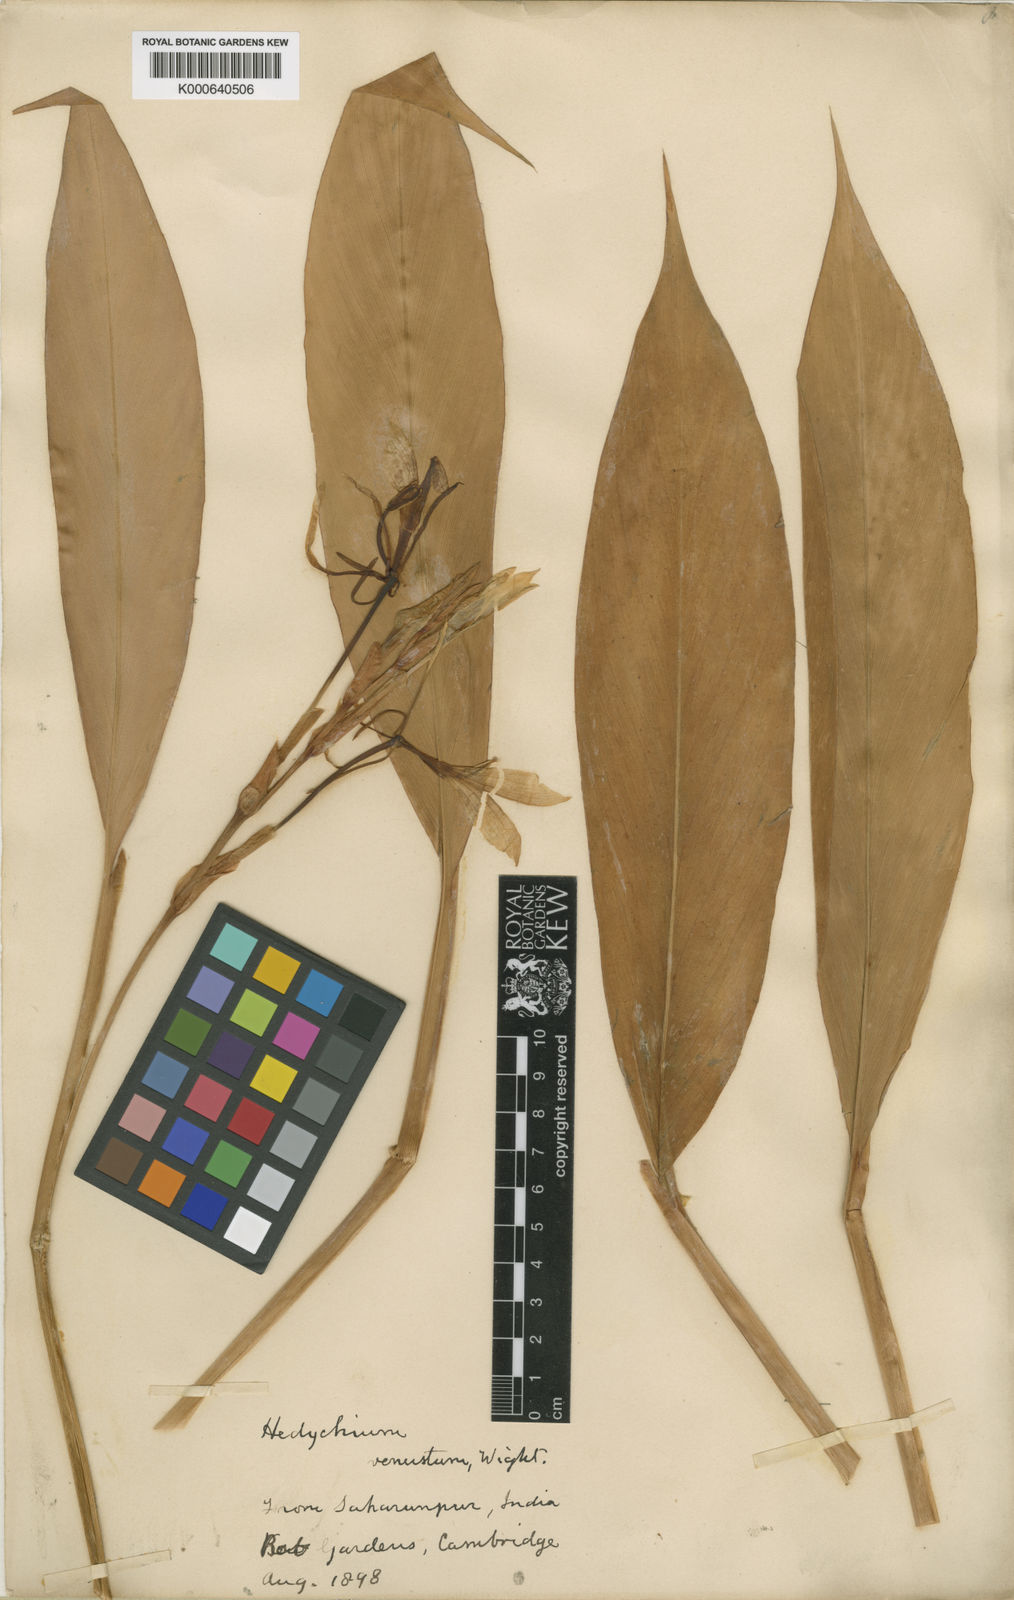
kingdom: Plantae
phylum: Tracheophyta
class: Liliopsida
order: Zingiberales
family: Zingiberaceae
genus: Hedychium
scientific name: Hedychium venustum
